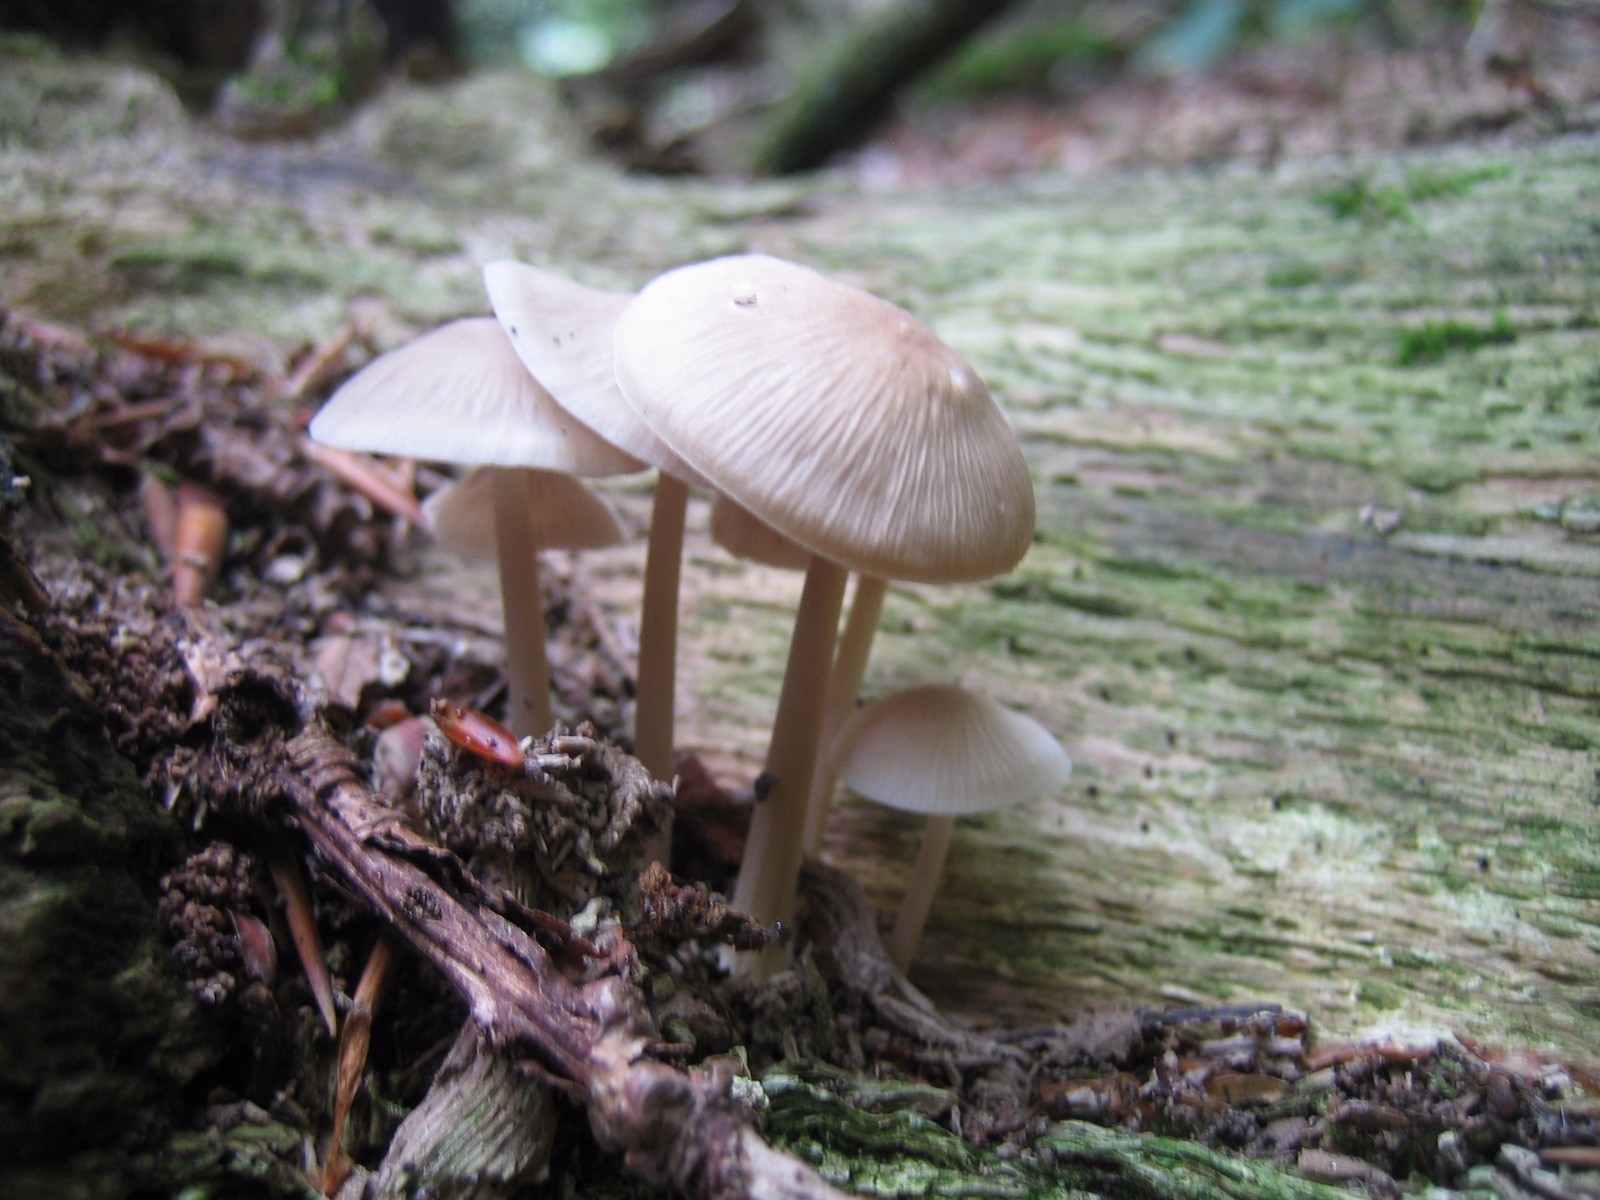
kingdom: Fungi
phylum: Basidiomycota
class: Agaricomycetes
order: Agaricales
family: Mycenaceae
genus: Mycena
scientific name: Mycena galericulata
